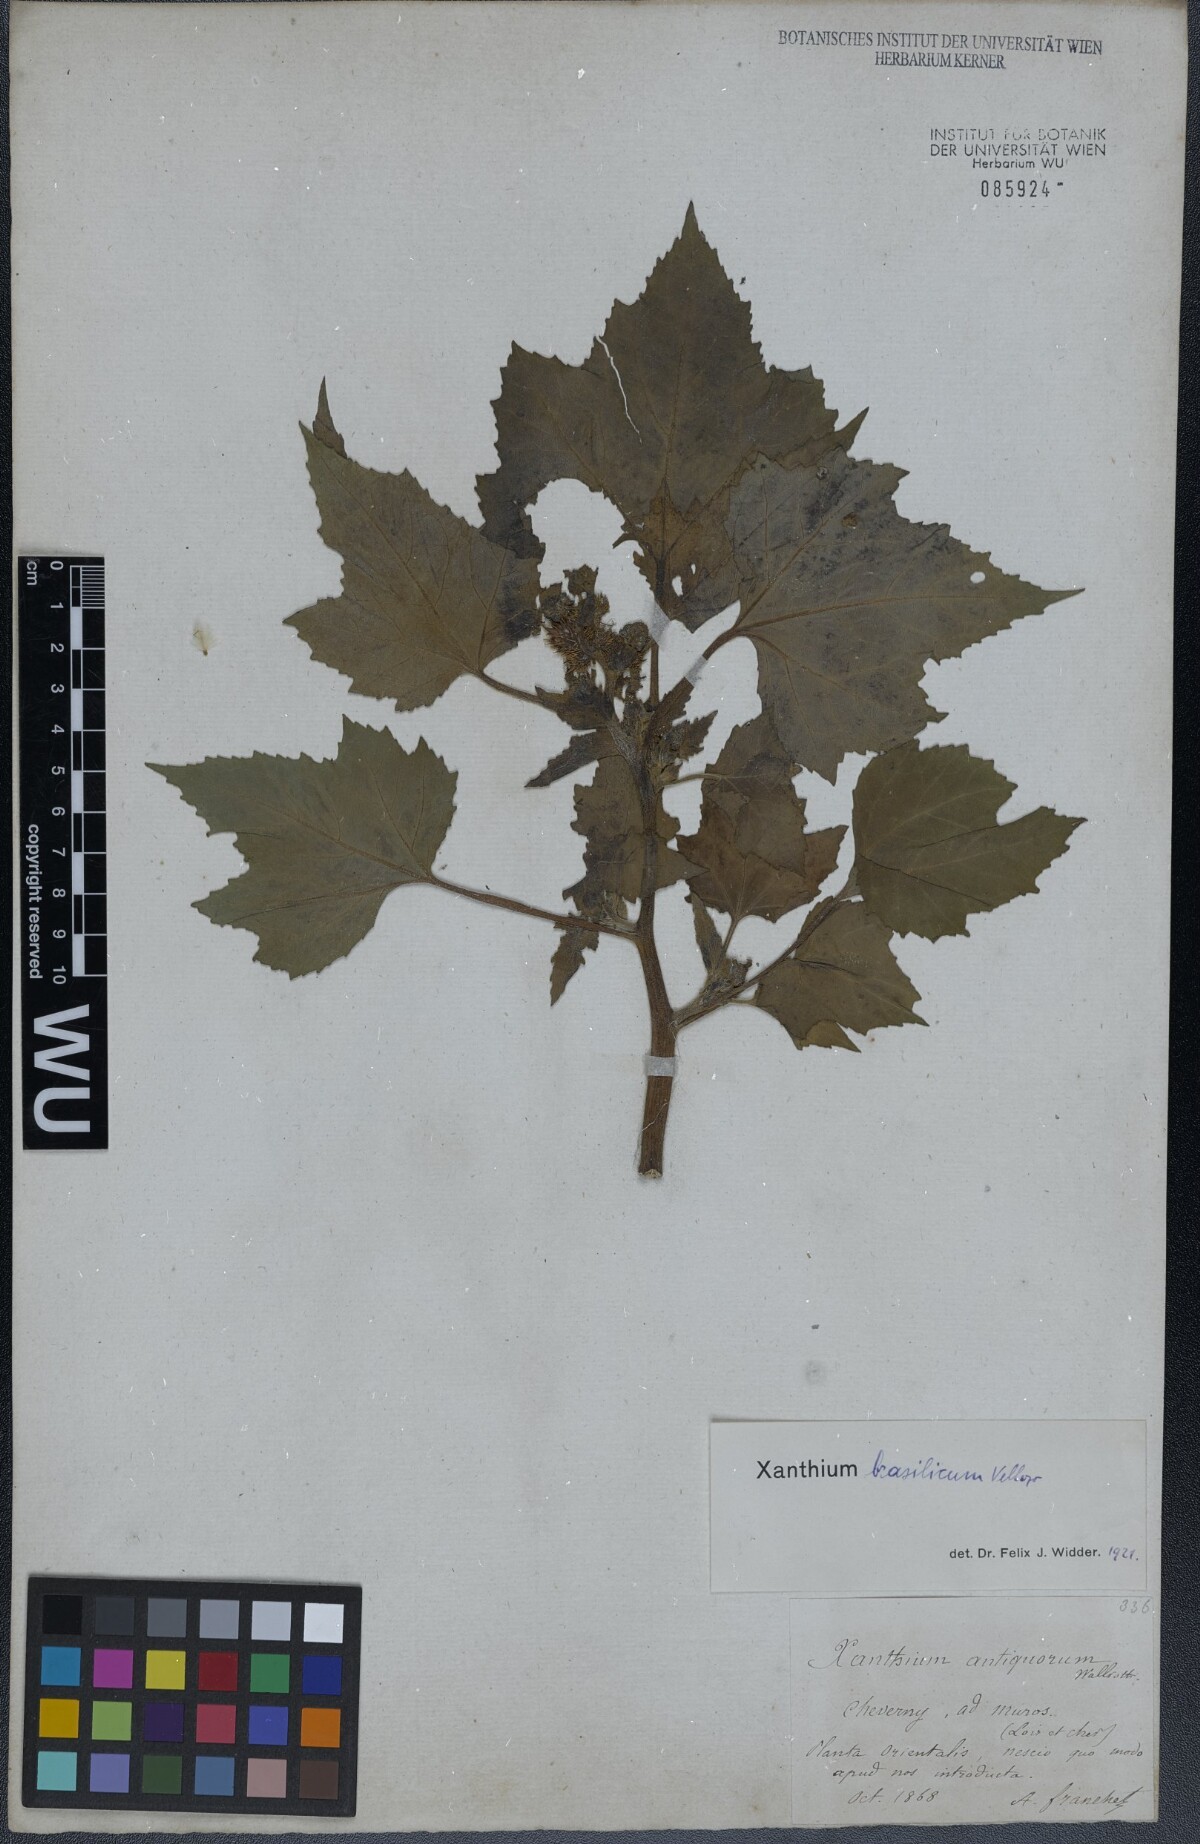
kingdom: Plantae
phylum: Tracheophyta
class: Magnoliopsida
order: Asterales
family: Asteraceae
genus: Xanthium
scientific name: Xanthium strumarium
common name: Rough cocklebur
